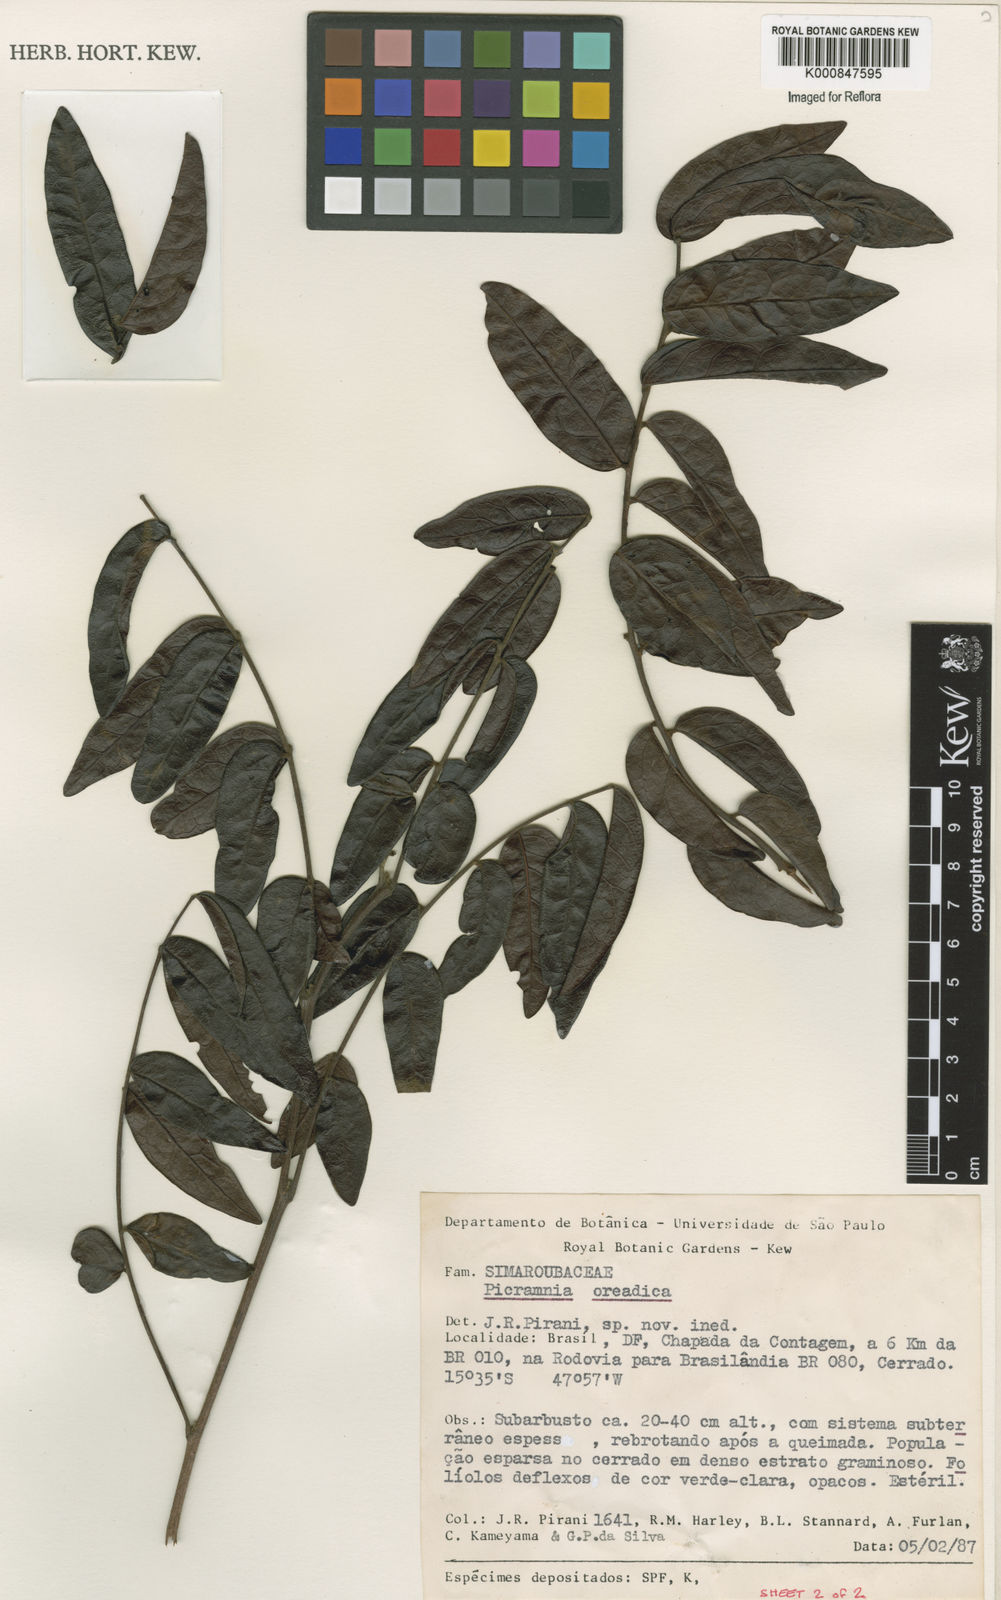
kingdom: Plantae
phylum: Tracheophyta
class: Magnoliopsida
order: Picramniales
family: Picramniaceae
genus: Picramnia
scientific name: Picramnia oreadica
